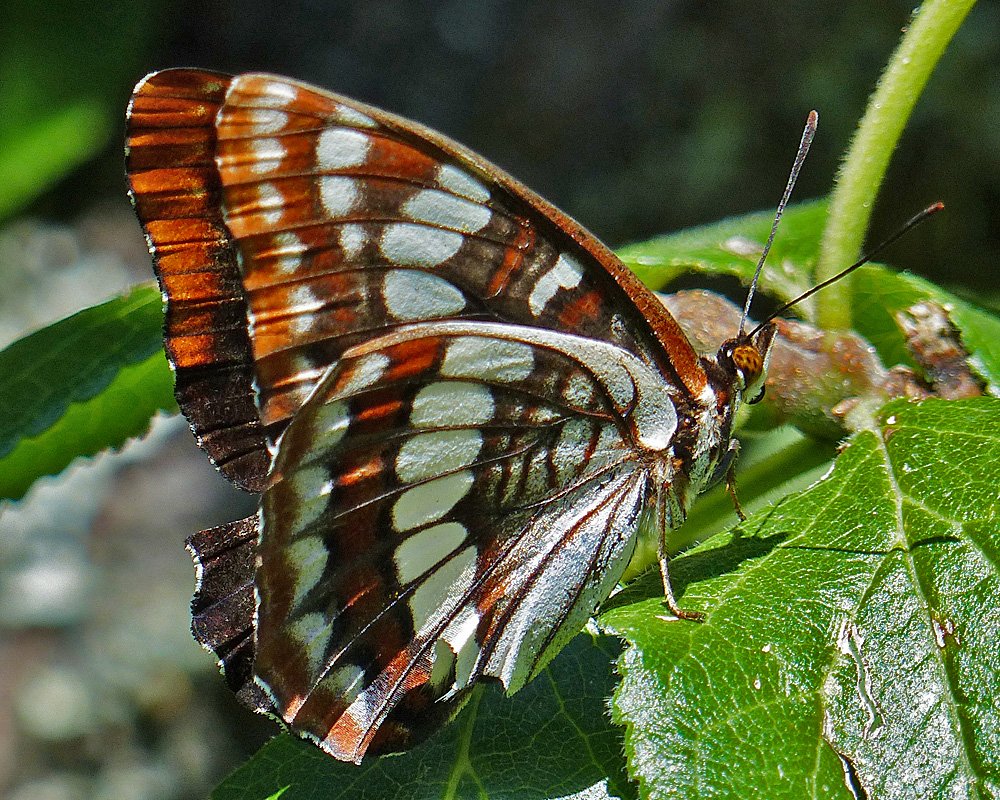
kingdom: Animalia
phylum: Arthropoda
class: Insecta
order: Lepidoptera
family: Nymphalidae
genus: Limenitis
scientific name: Limenitis lorquini
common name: Lorquin's Admiral
